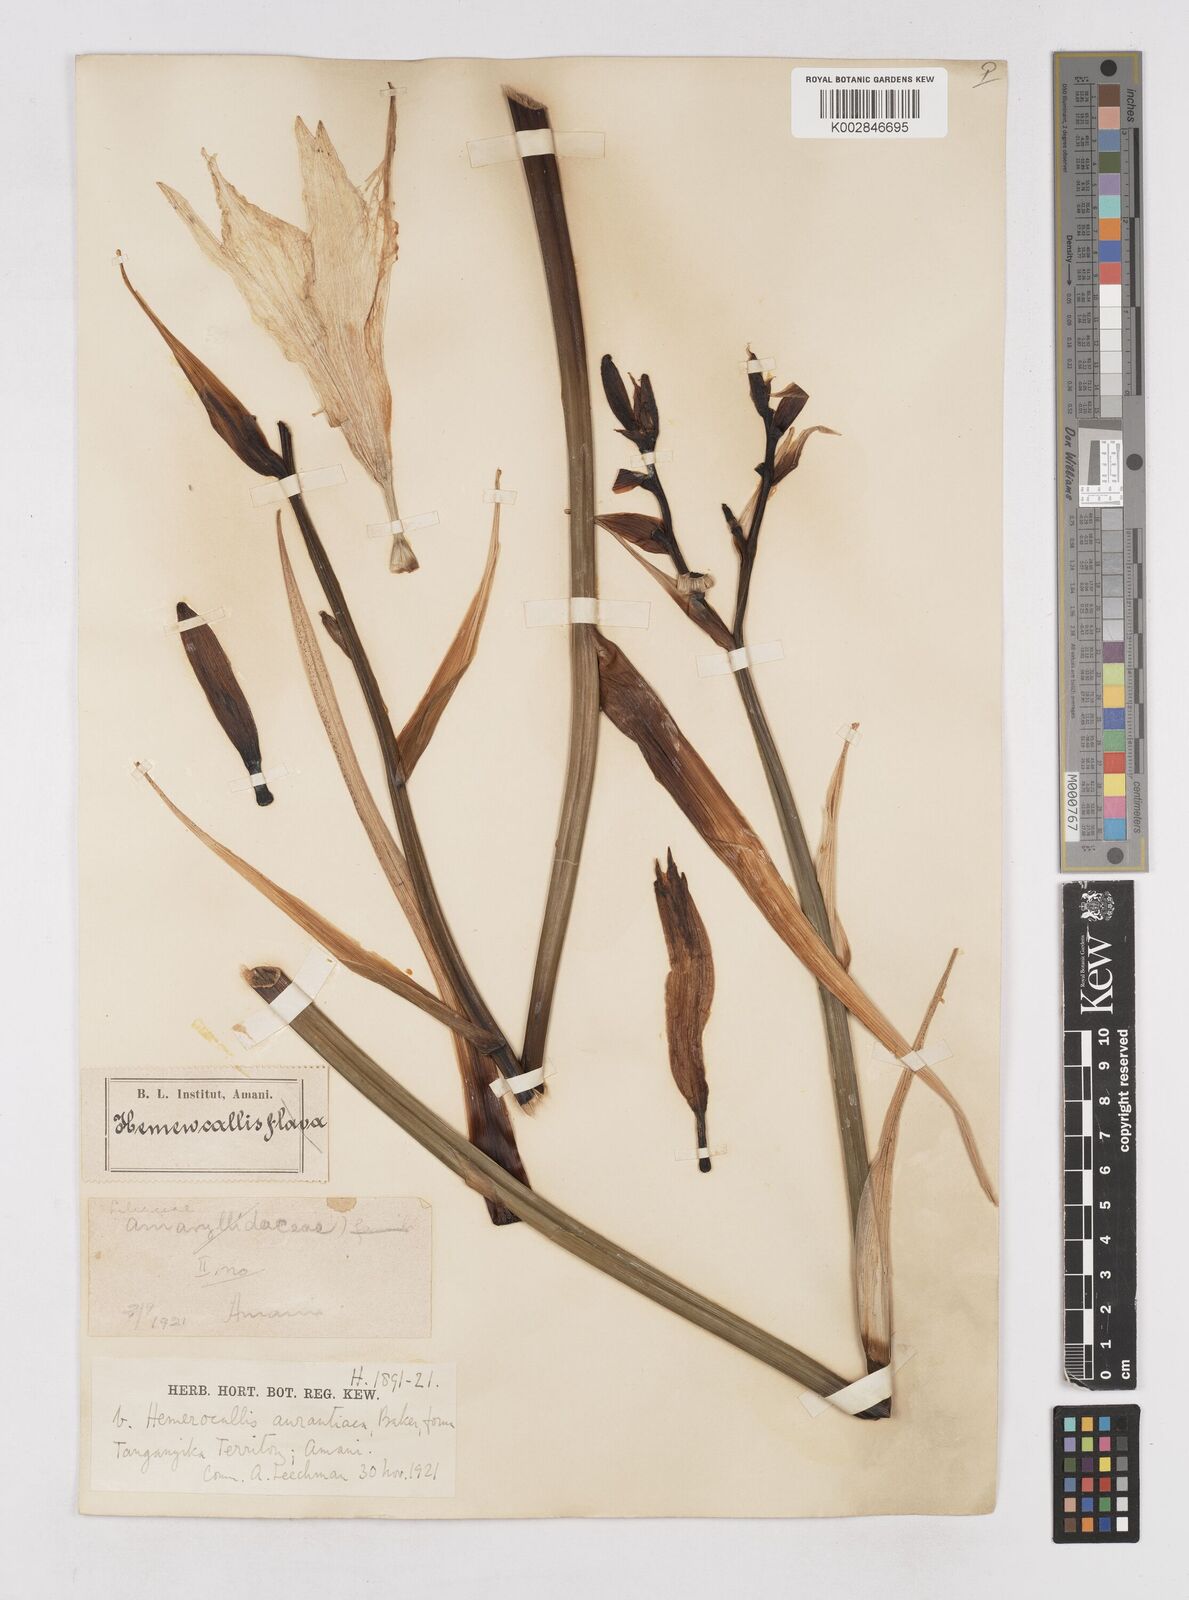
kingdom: Plantae
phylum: Tracheophyta
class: Liliopsida
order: Asparagales
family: Asphodelaceae
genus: Hemerocallis
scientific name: Hemerocallis fulva
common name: Orange day-lily
